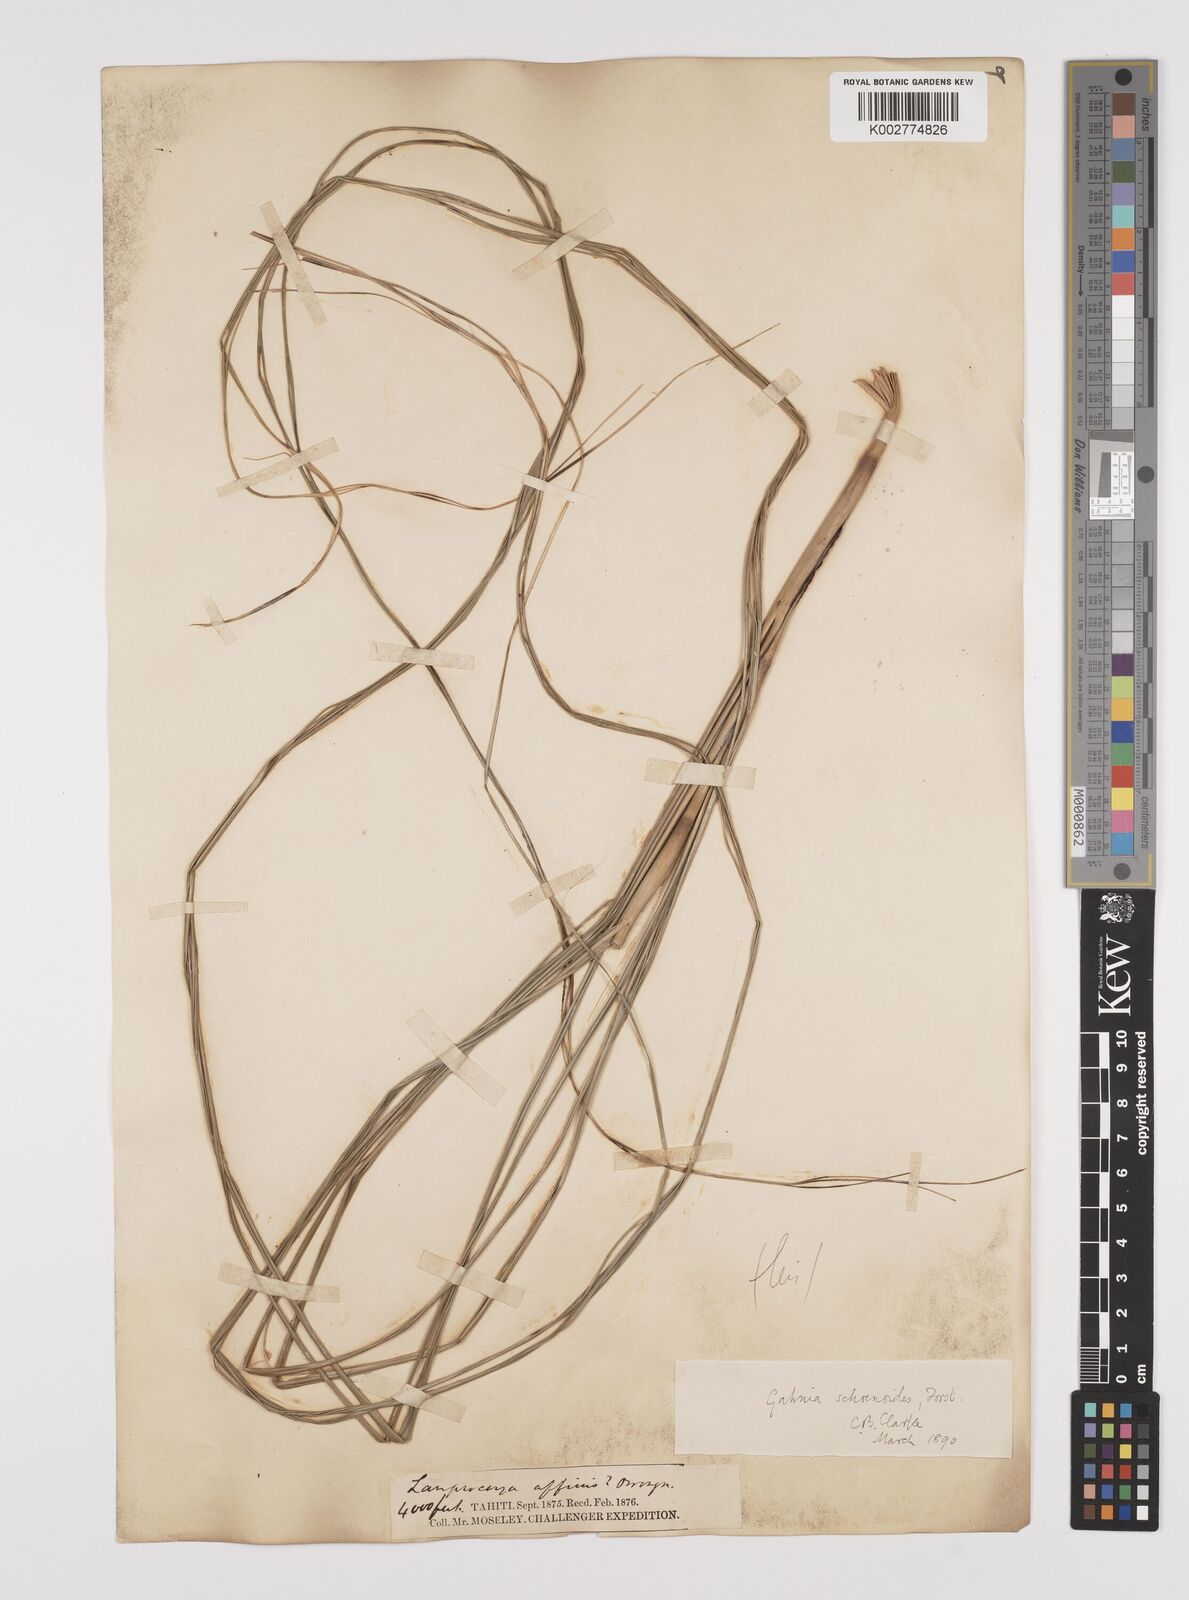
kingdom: Plantae
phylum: Tracheophyta
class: Liliopsida
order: Poales
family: Cyperaceae
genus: Gahnia
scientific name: Gahnia schoenoides
